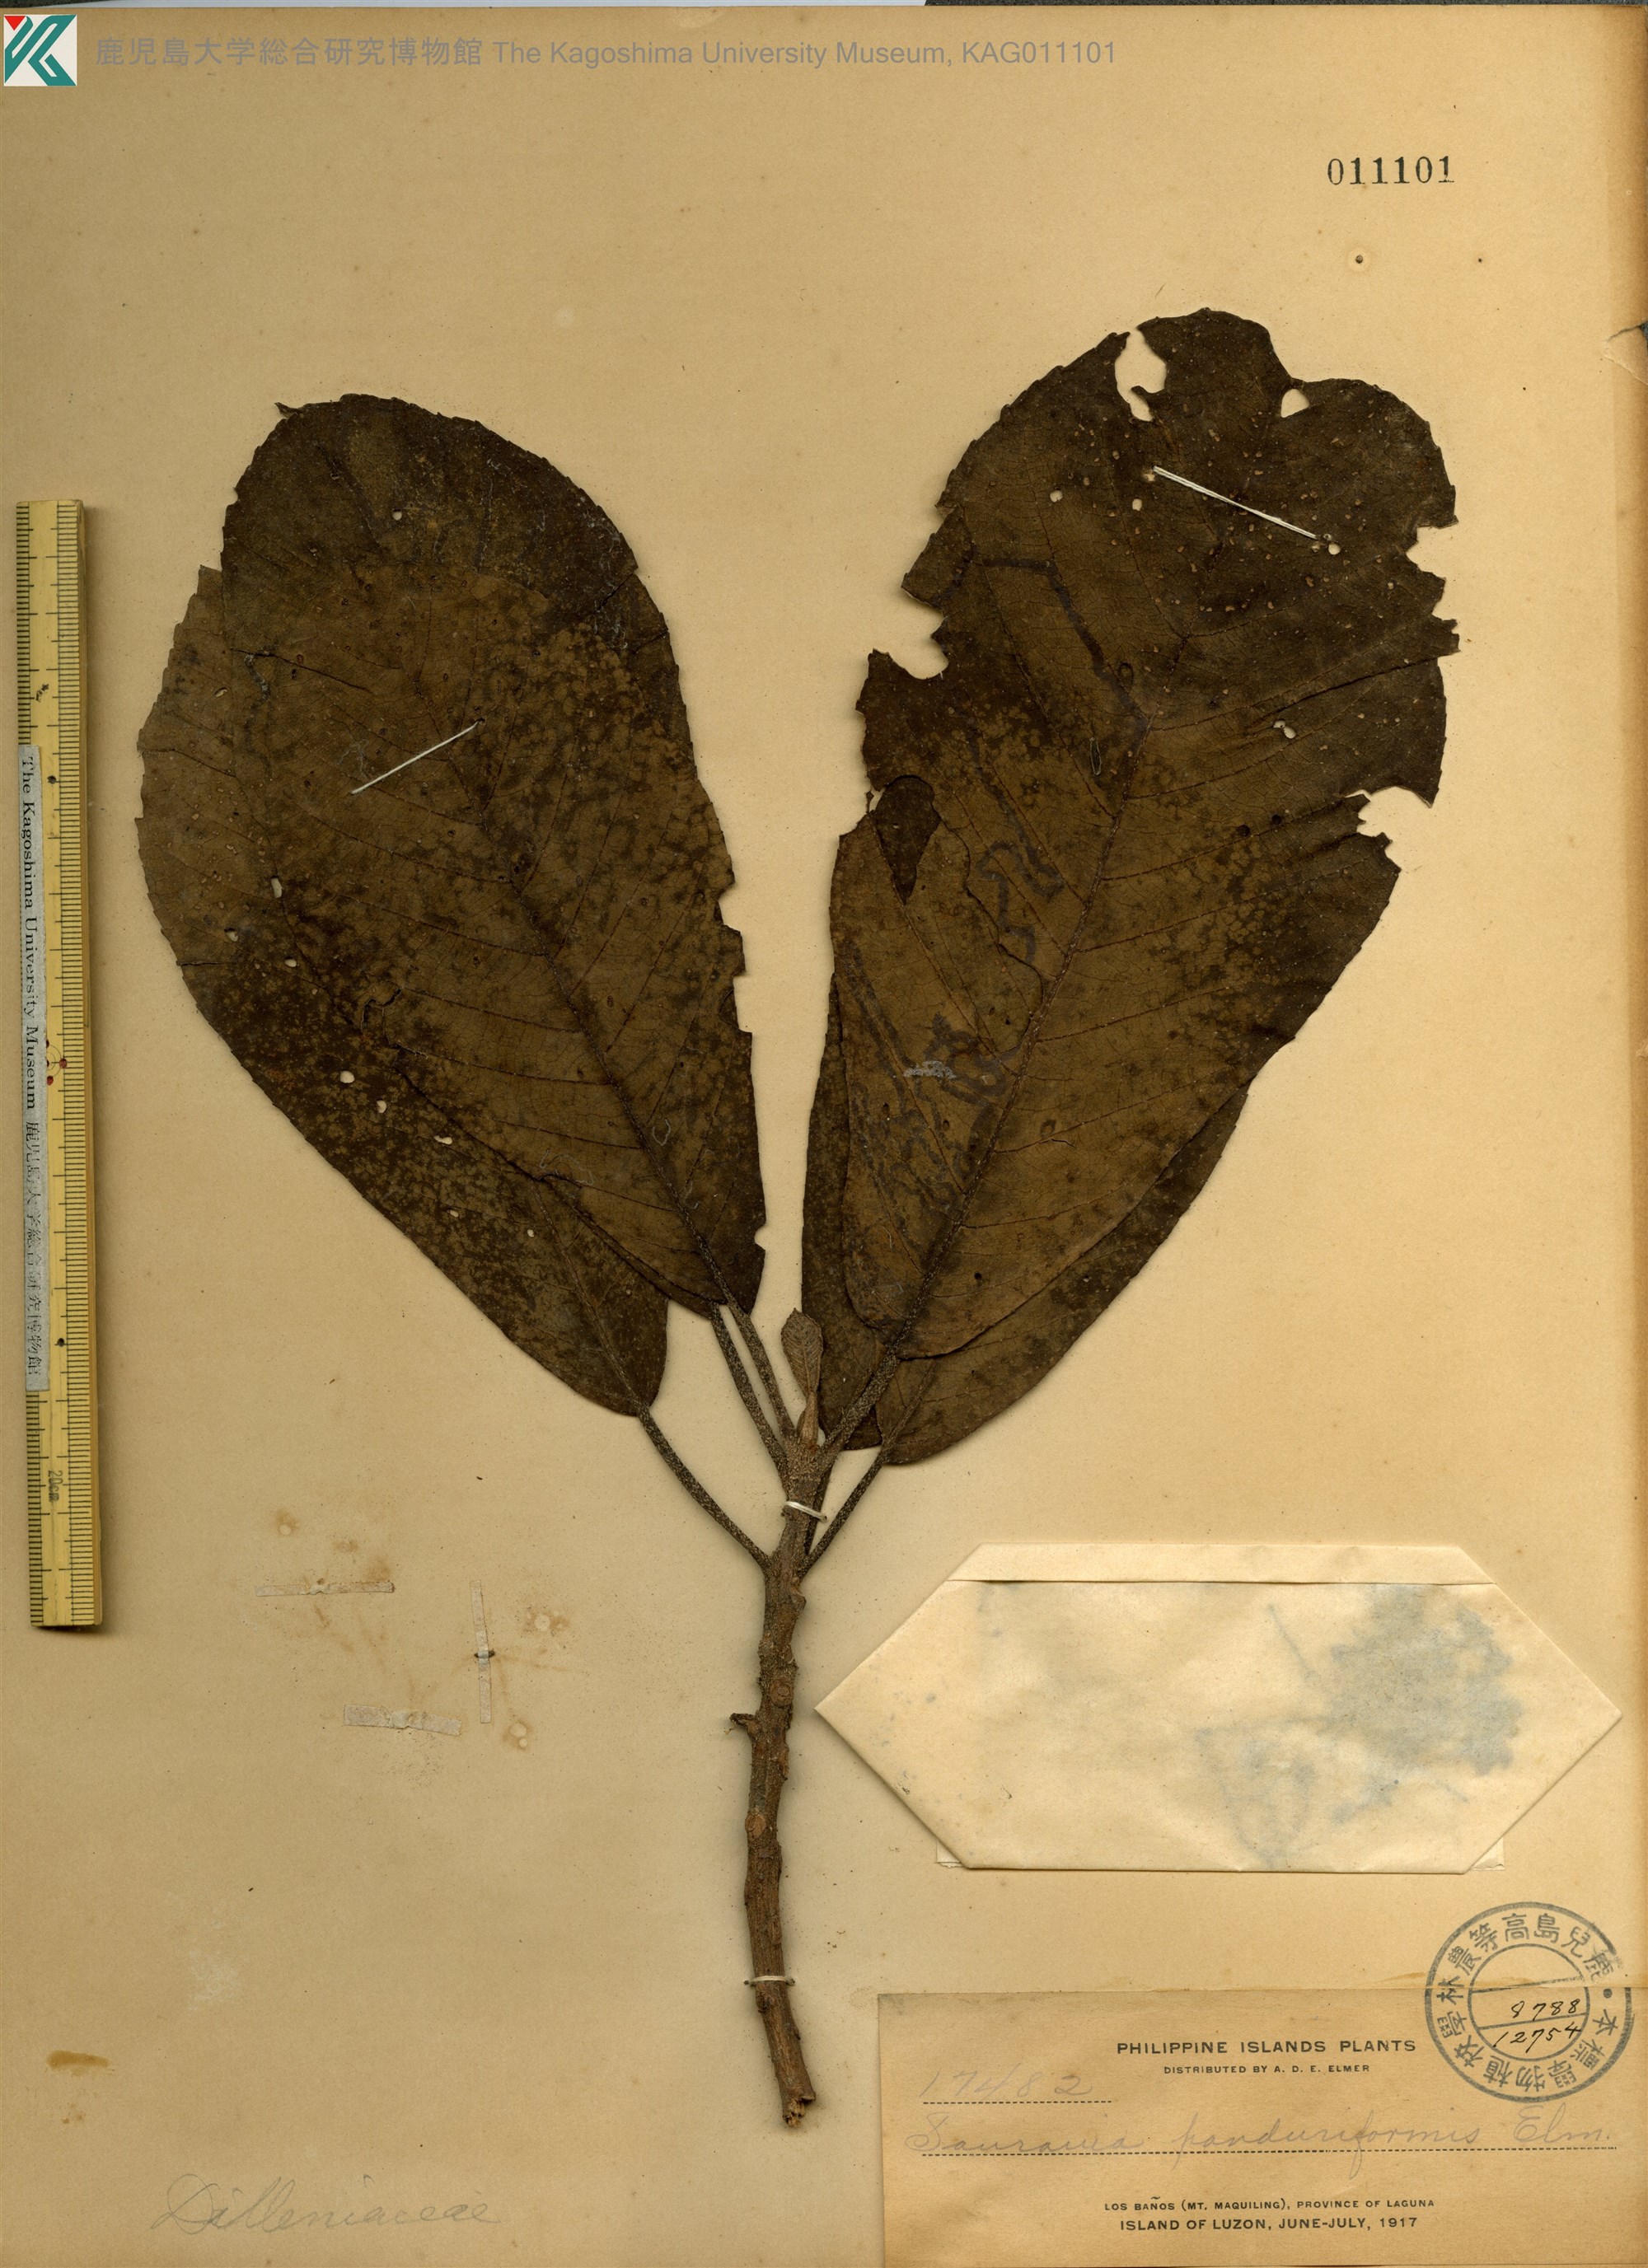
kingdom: Plantae
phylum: Tracheophyta
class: Magnoliopsida
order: Ericales
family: Actinidiaceae
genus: Saurauia
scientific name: Saurauia panduriformis
